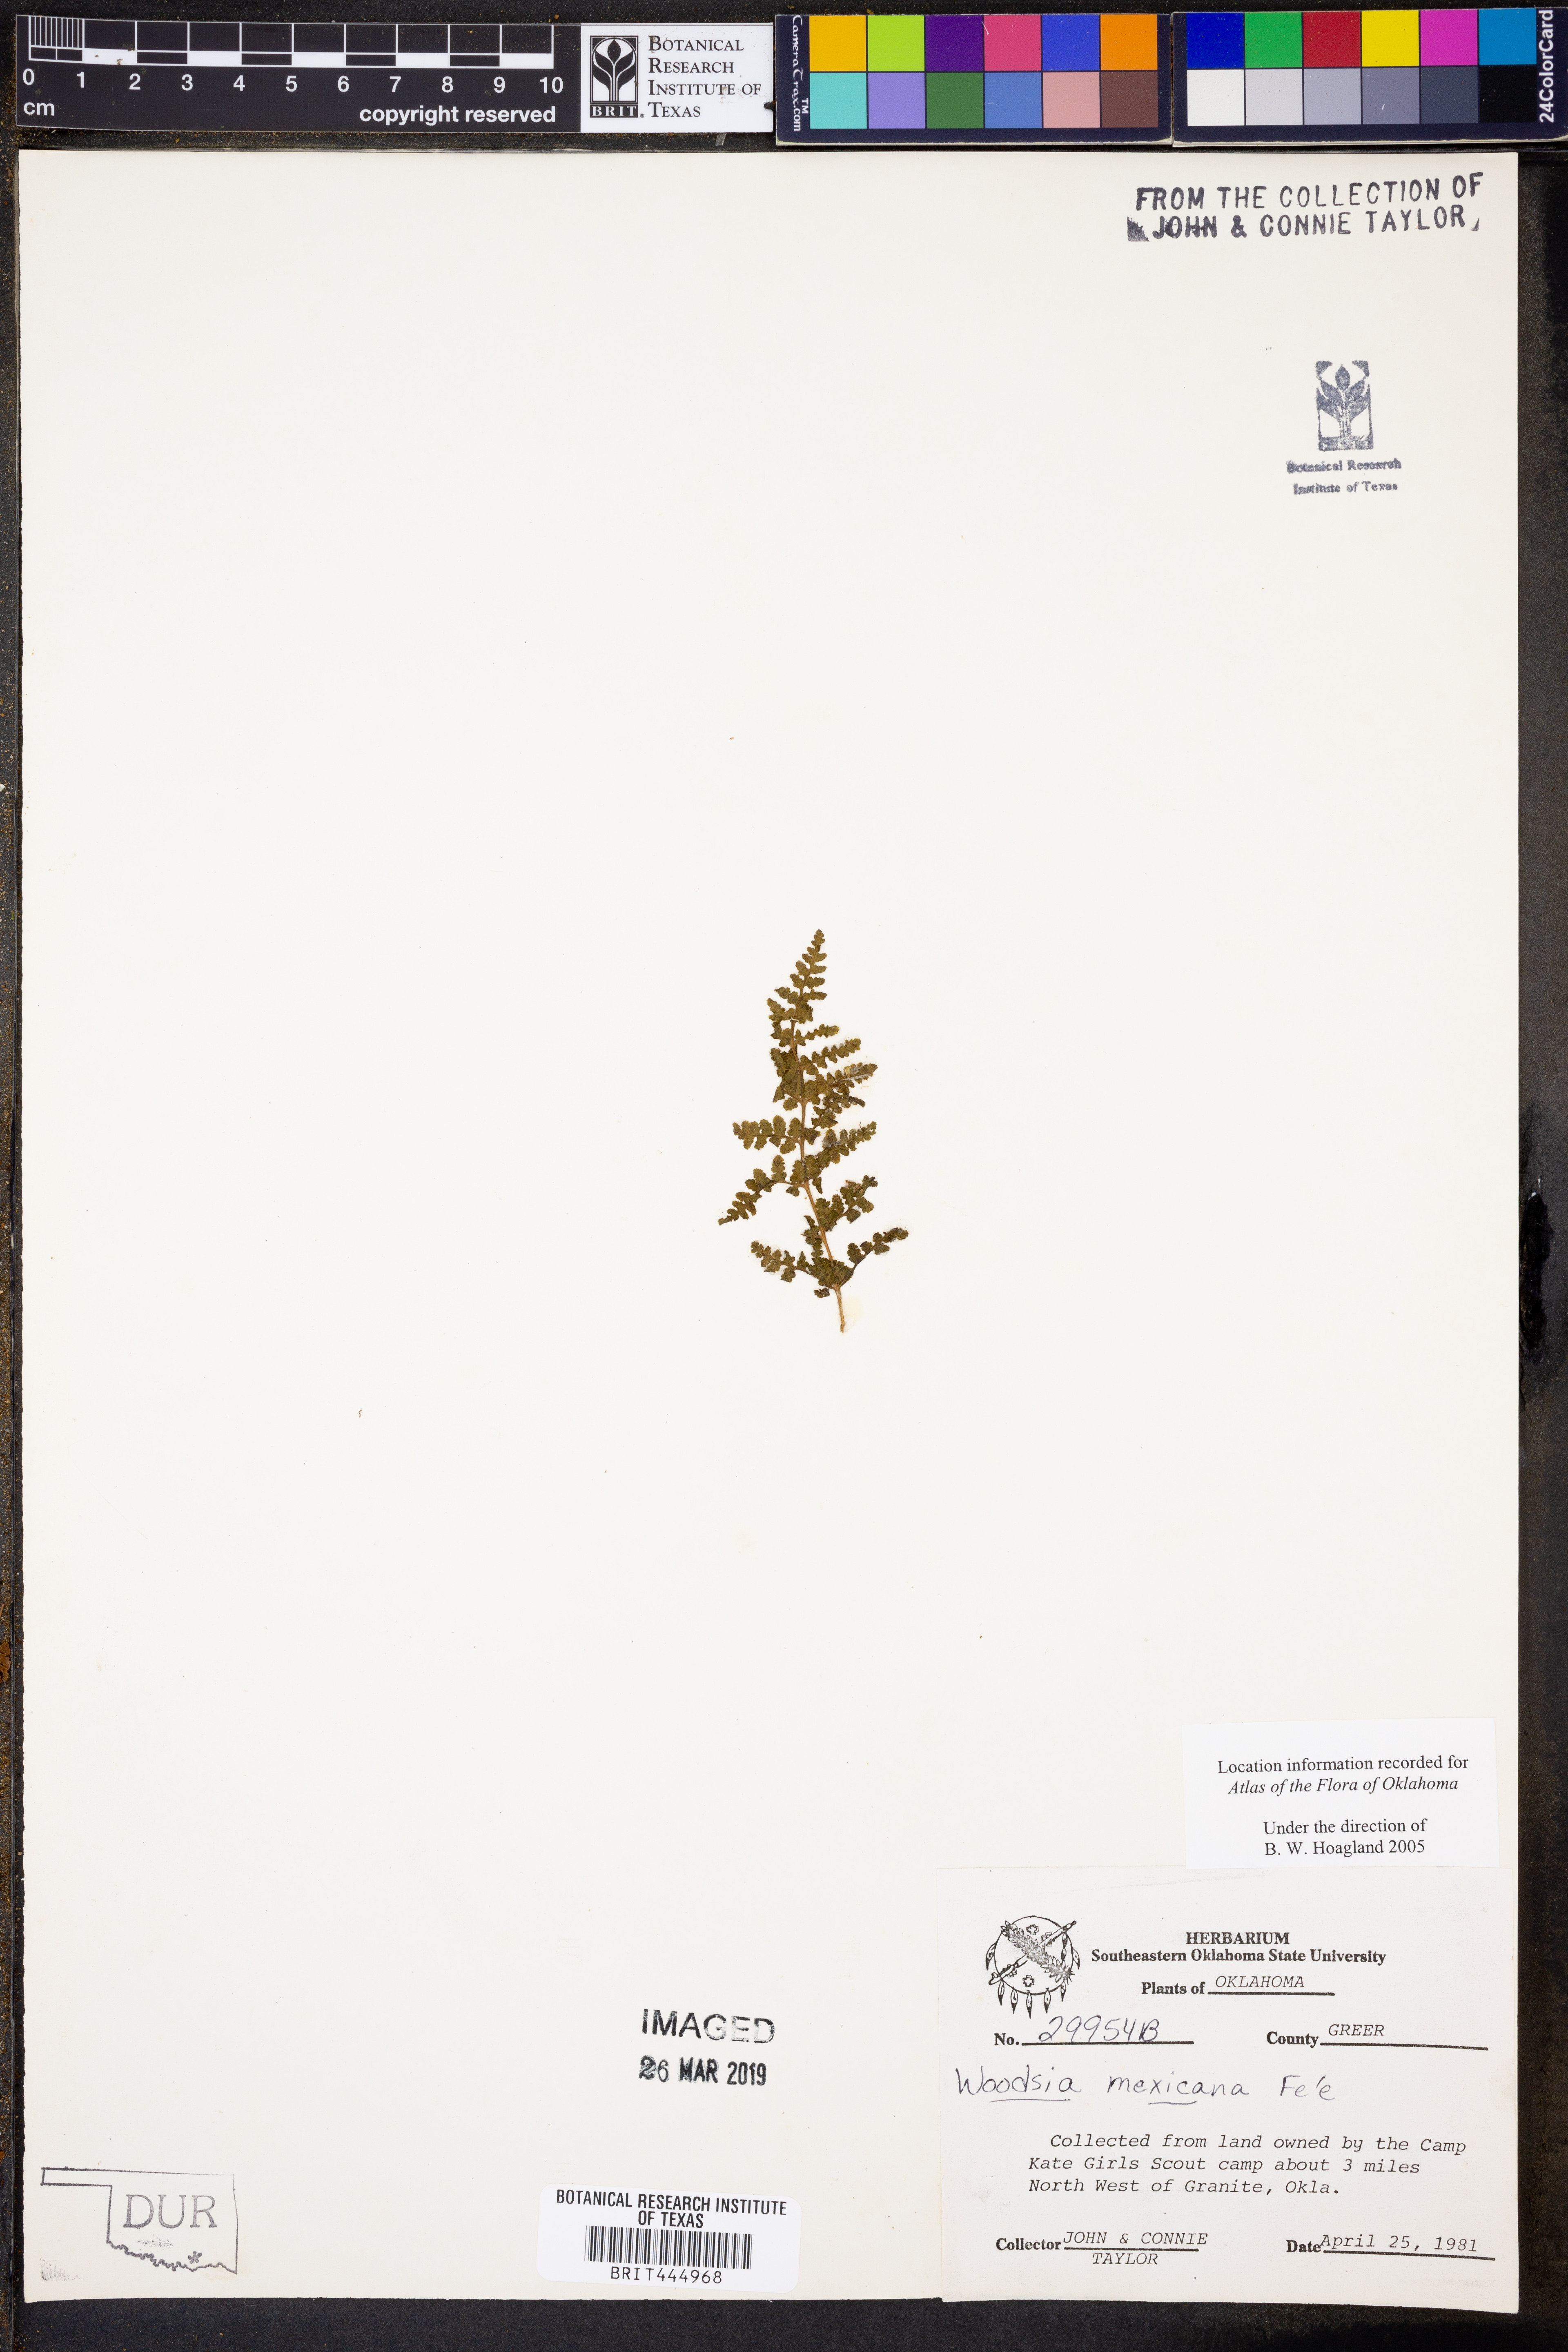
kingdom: Plantae
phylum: Tracheophyta
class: Polypodiopsida
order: Polypodiales
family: Woodsiaceae
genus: Physematium
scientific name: Physematium mexicanum
